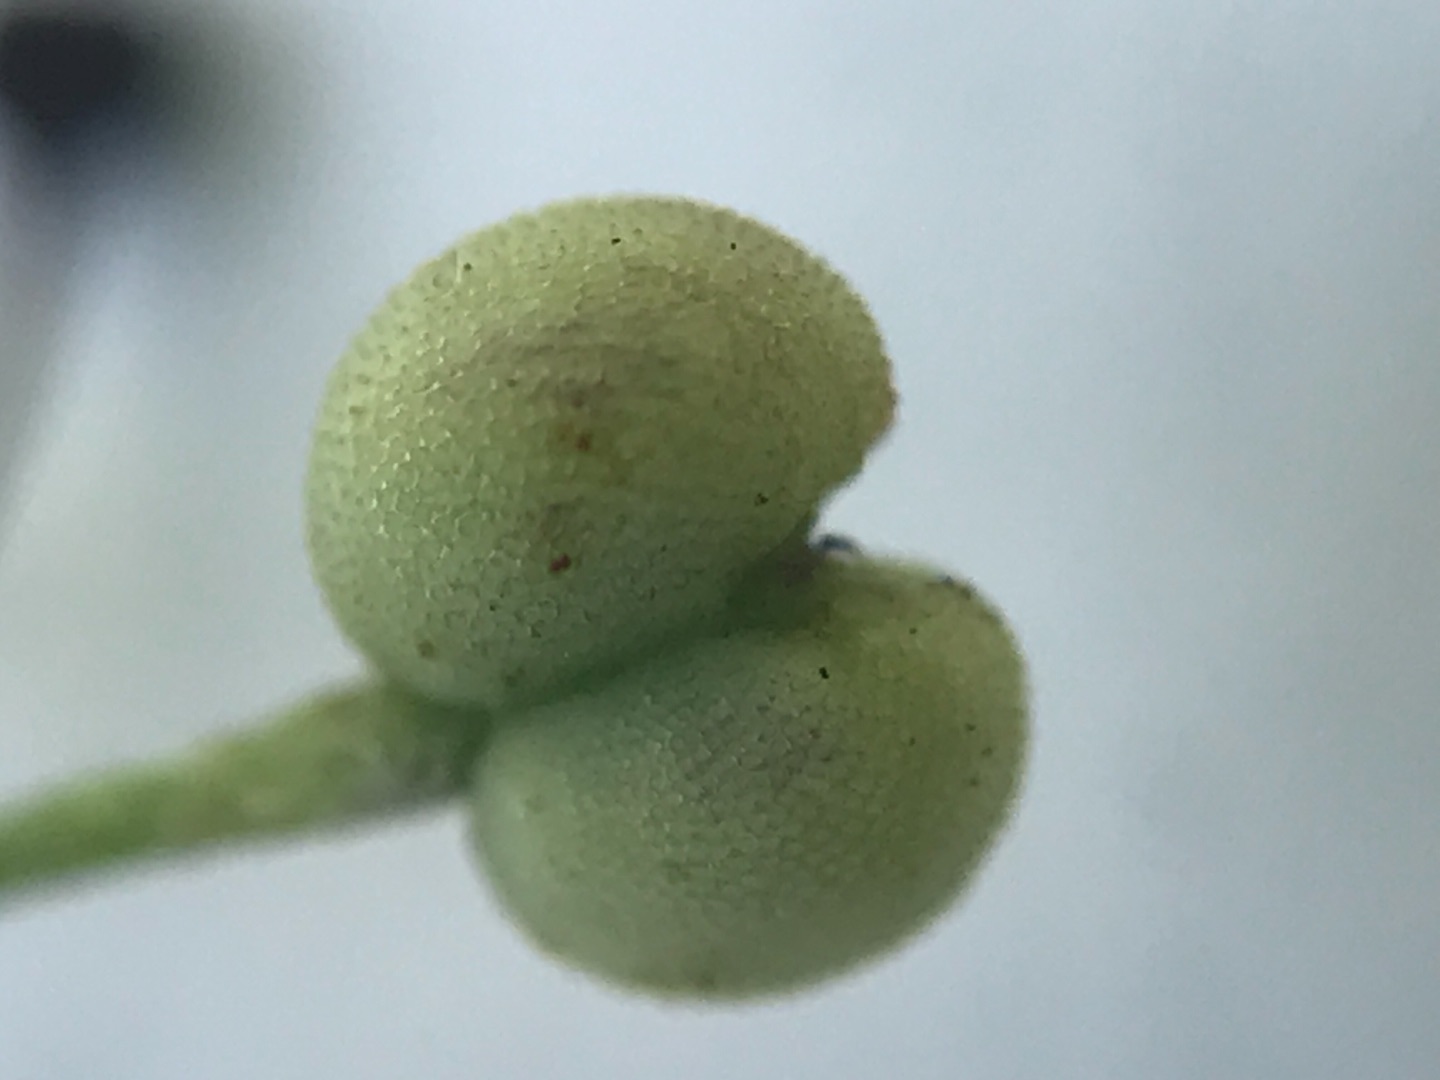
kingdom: Plantae
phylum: Tracheophyta
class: Magnoliopsida
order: Gentianales
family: Rubiaceae
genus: Galium
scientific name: Galium saxatile
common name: Lyng-snerre
